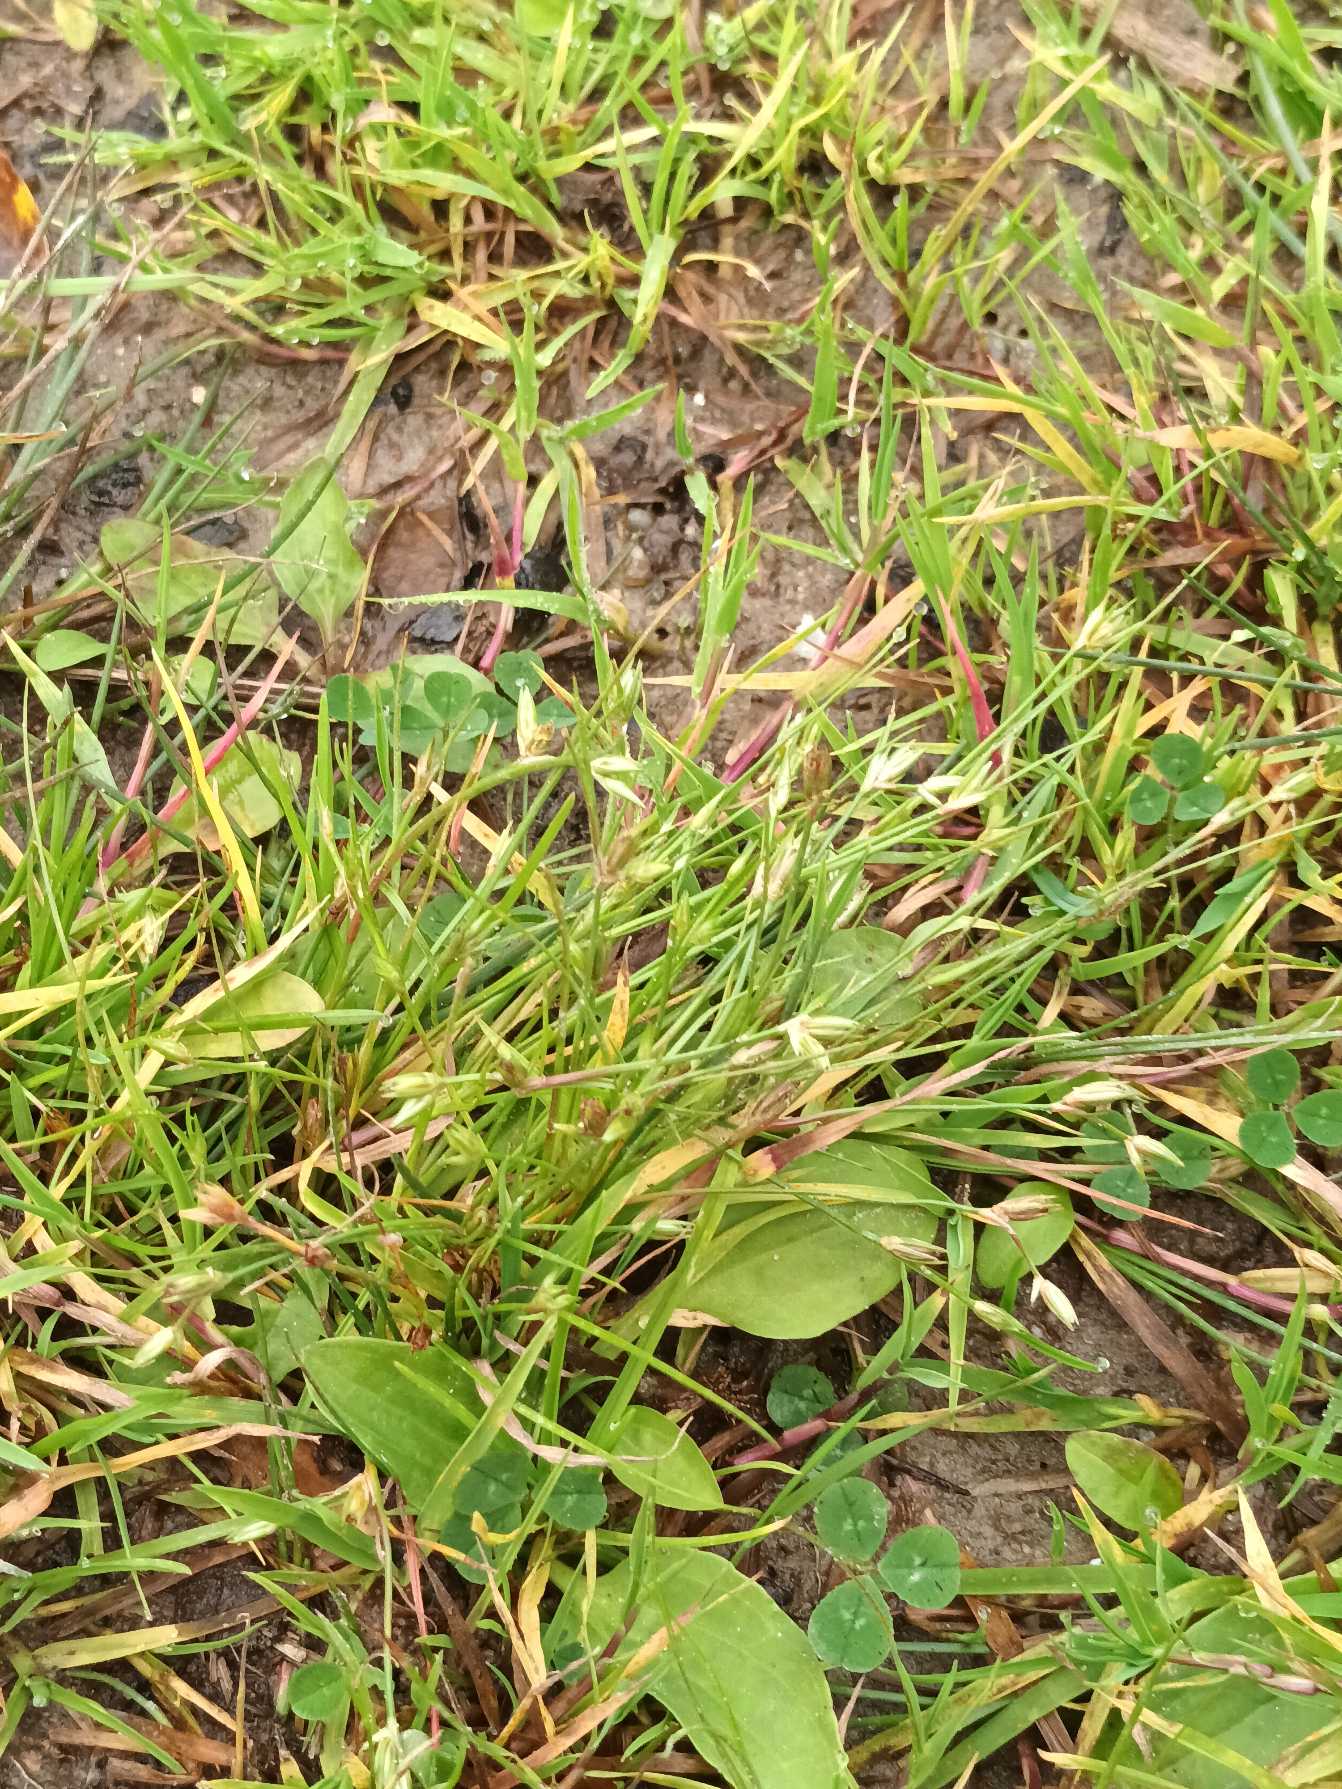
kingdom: Plantae
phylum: Tracheophyta
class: Liliopsida
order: Poales
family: Juncaceae
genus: Juncus
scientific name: Juncus bufonius
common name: Tudse-siv
